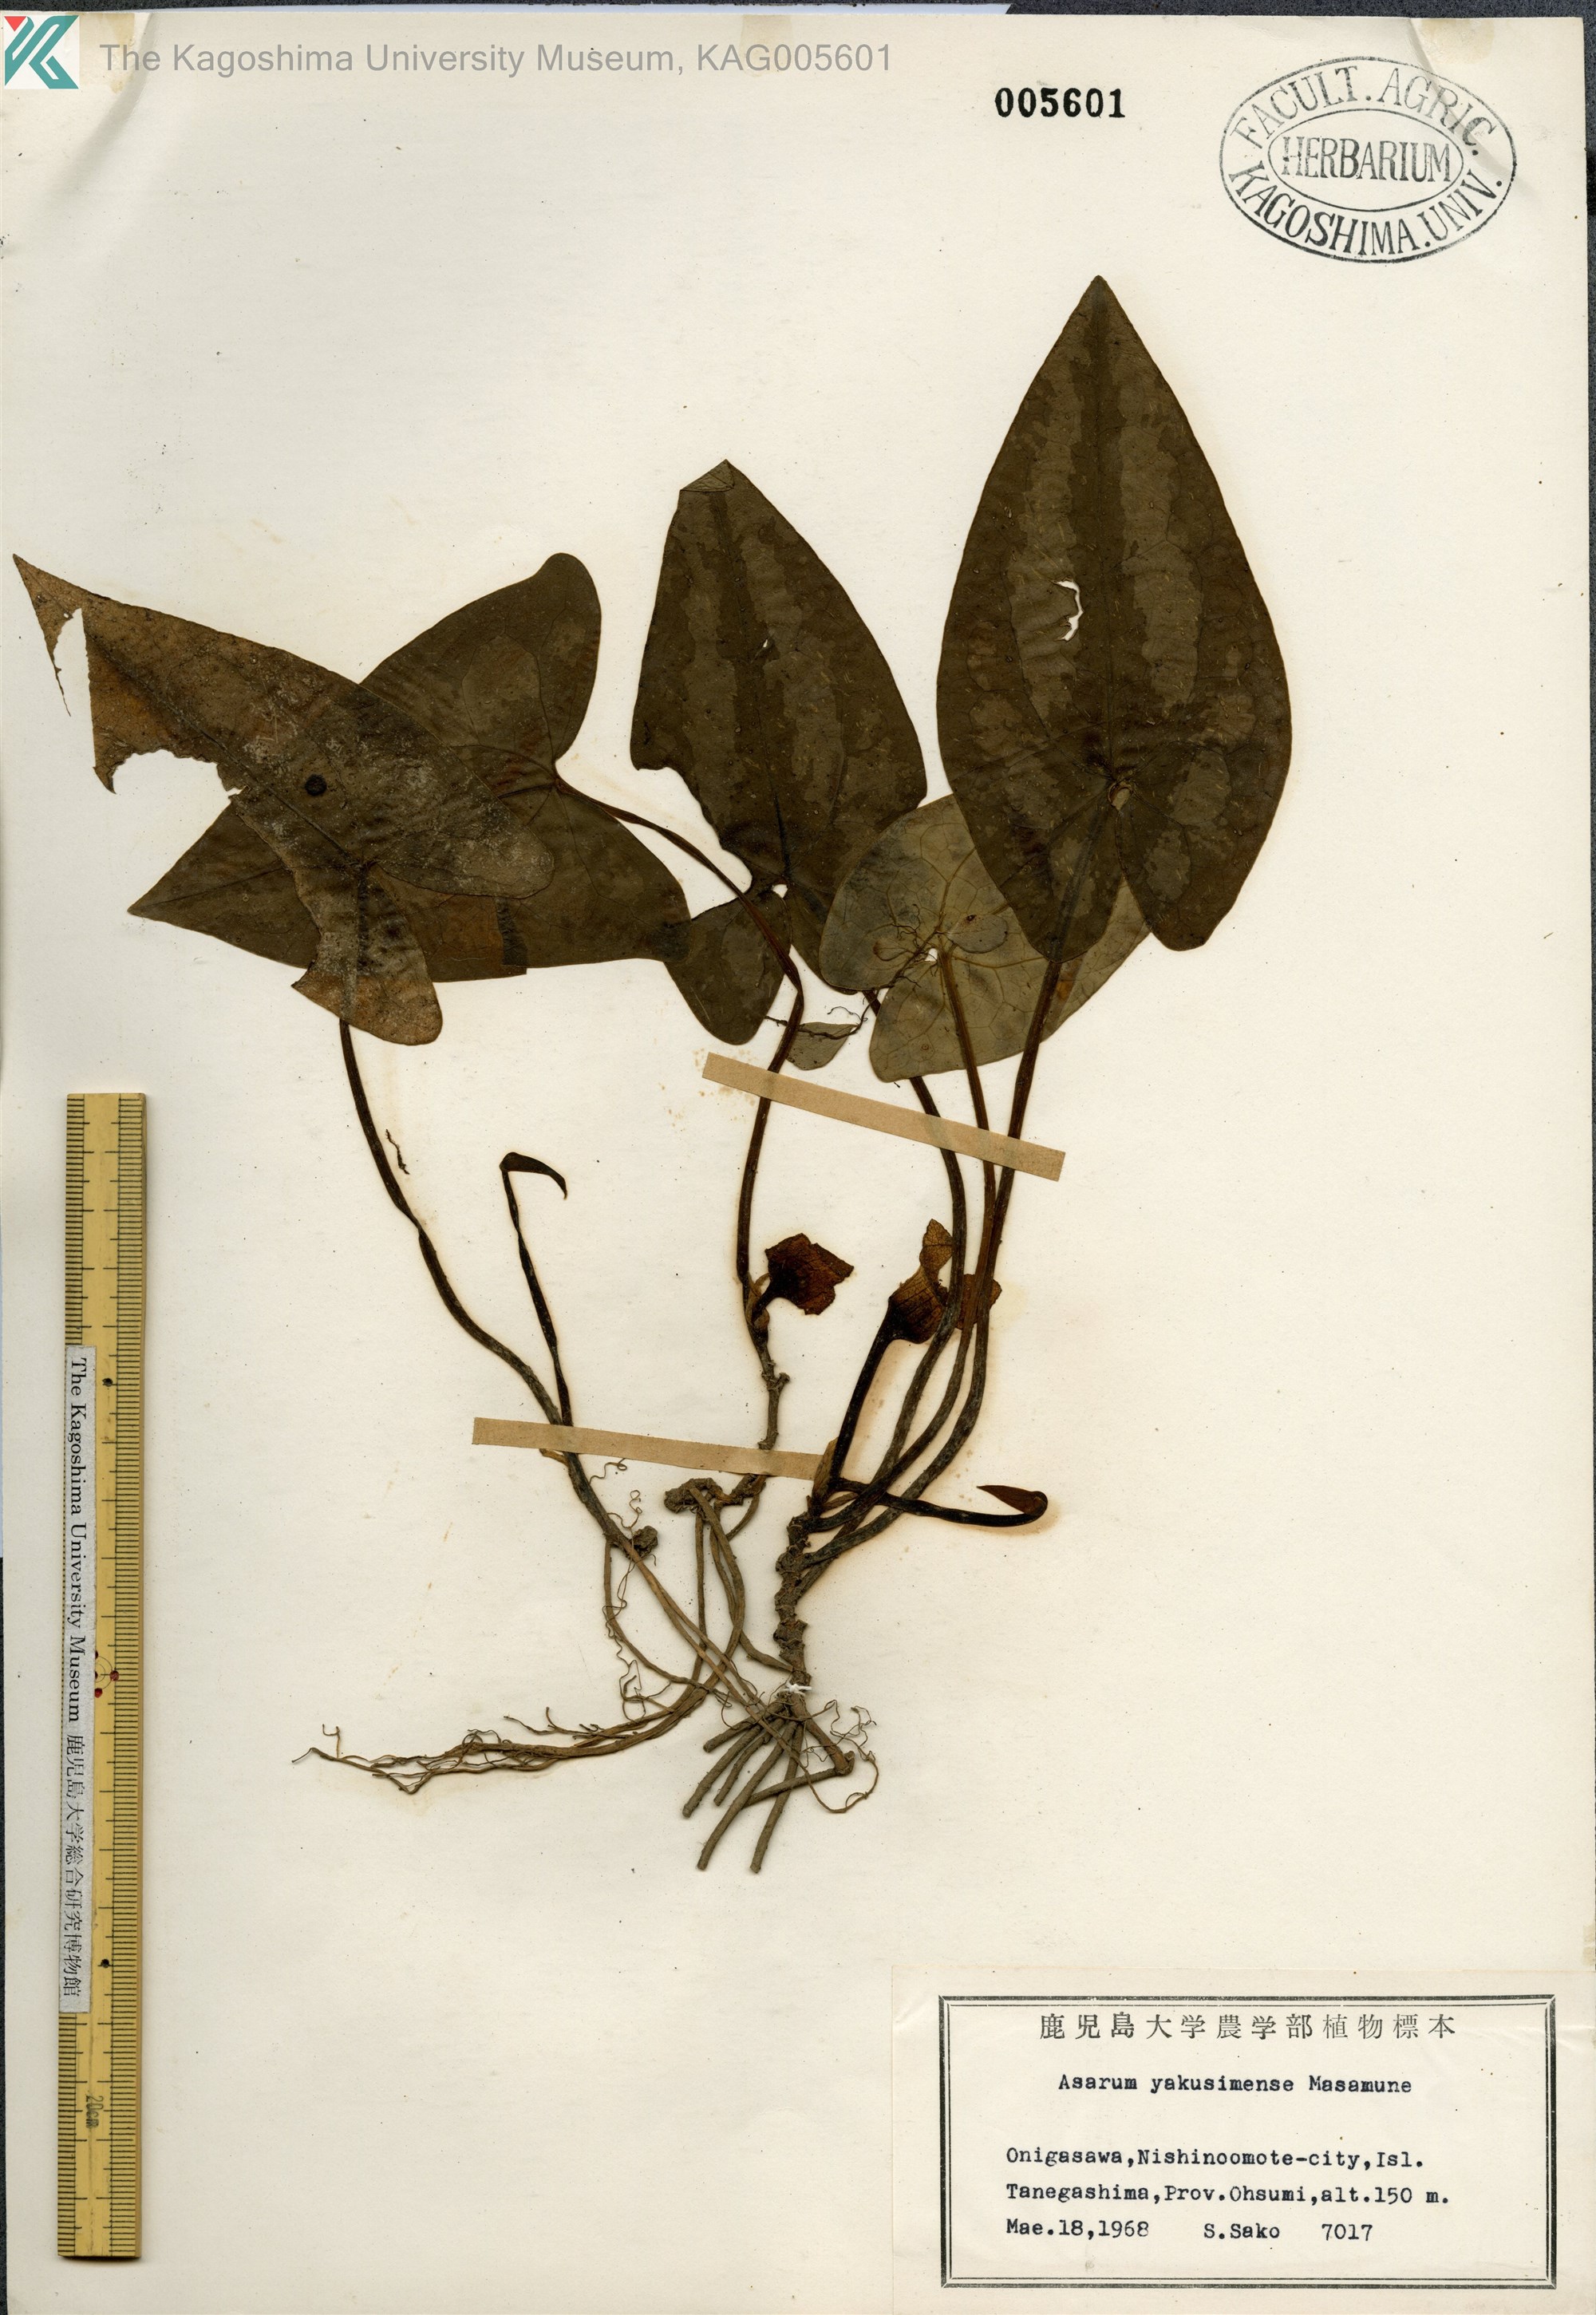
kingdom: Plantae
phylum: Tracheophyta
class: Magnoliopsida
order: Piperales
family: Aristolochiaceae
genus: Asarum
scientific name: Asarum kumageanum
